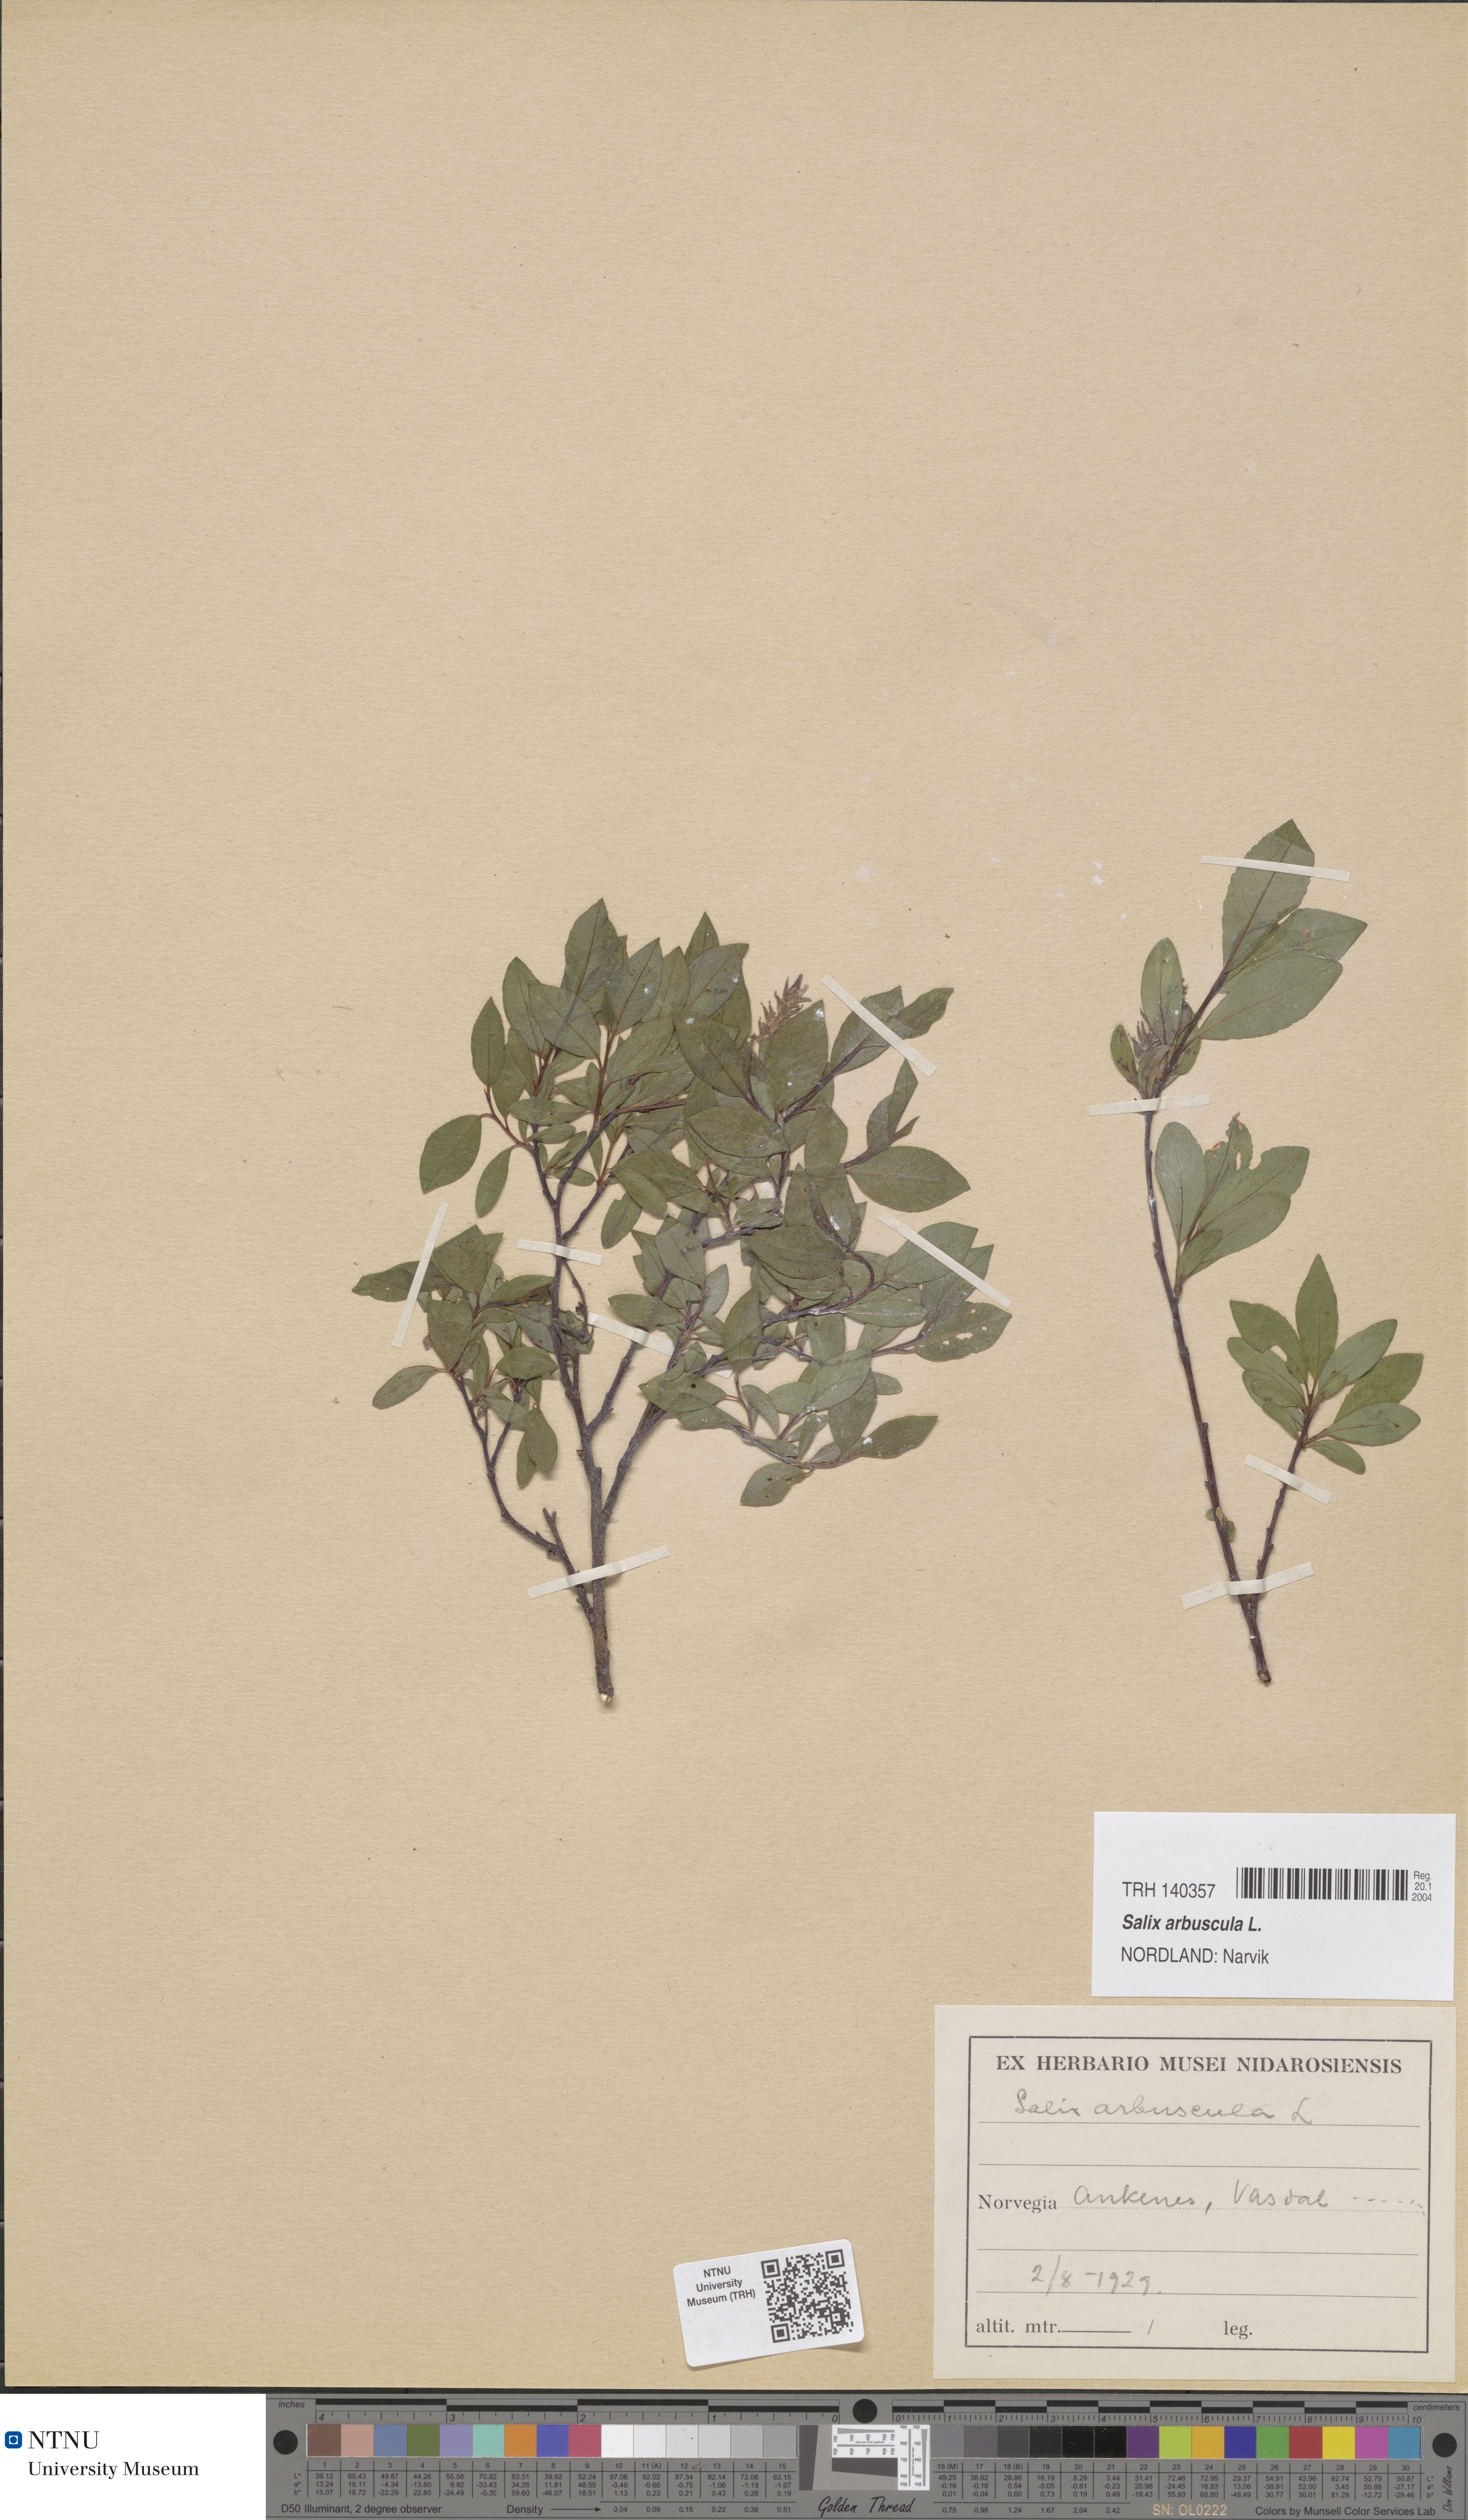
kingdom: Plantae
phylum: Tracheophyta
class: Magnoliopsida
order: Malpighiales
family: Salicaceae
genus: Salix
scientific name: Salix arbuscula
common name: Mountain willow
